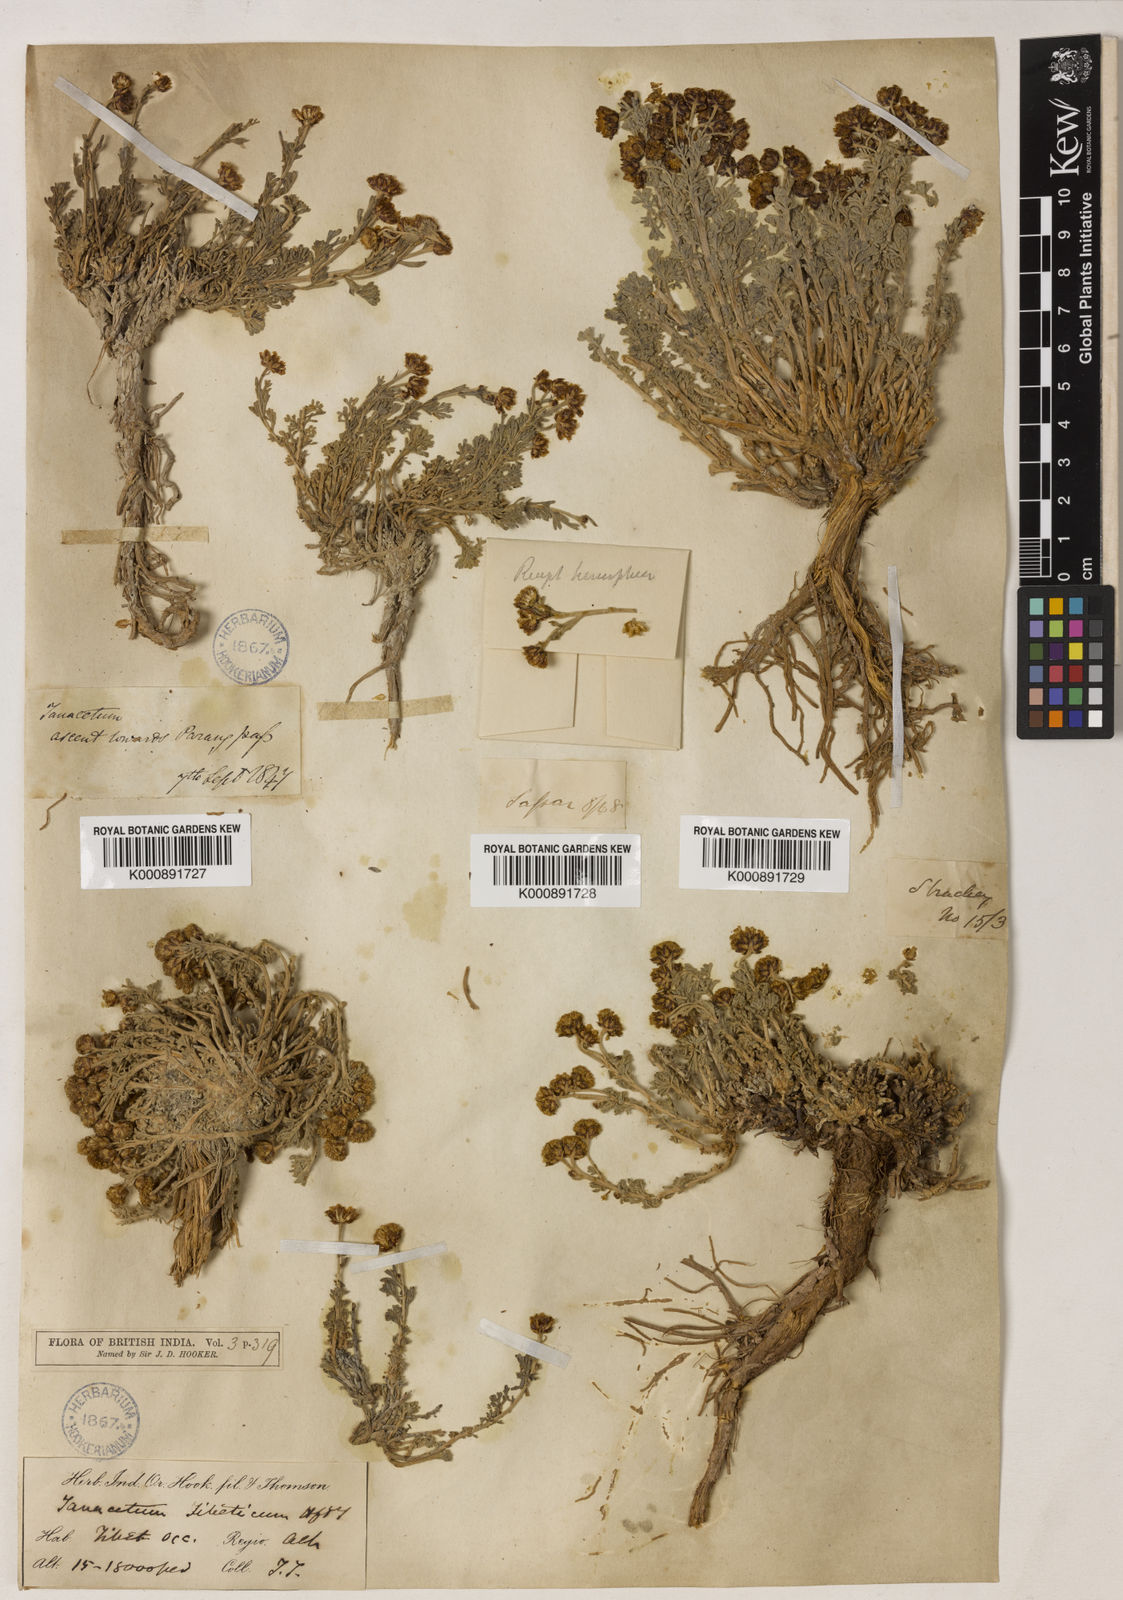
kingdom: Plantae
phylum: Tracheophyta
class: Magnoliopsida
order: Asterales
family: Asteraceae
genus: Ajania
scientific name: Ajania tibetica
